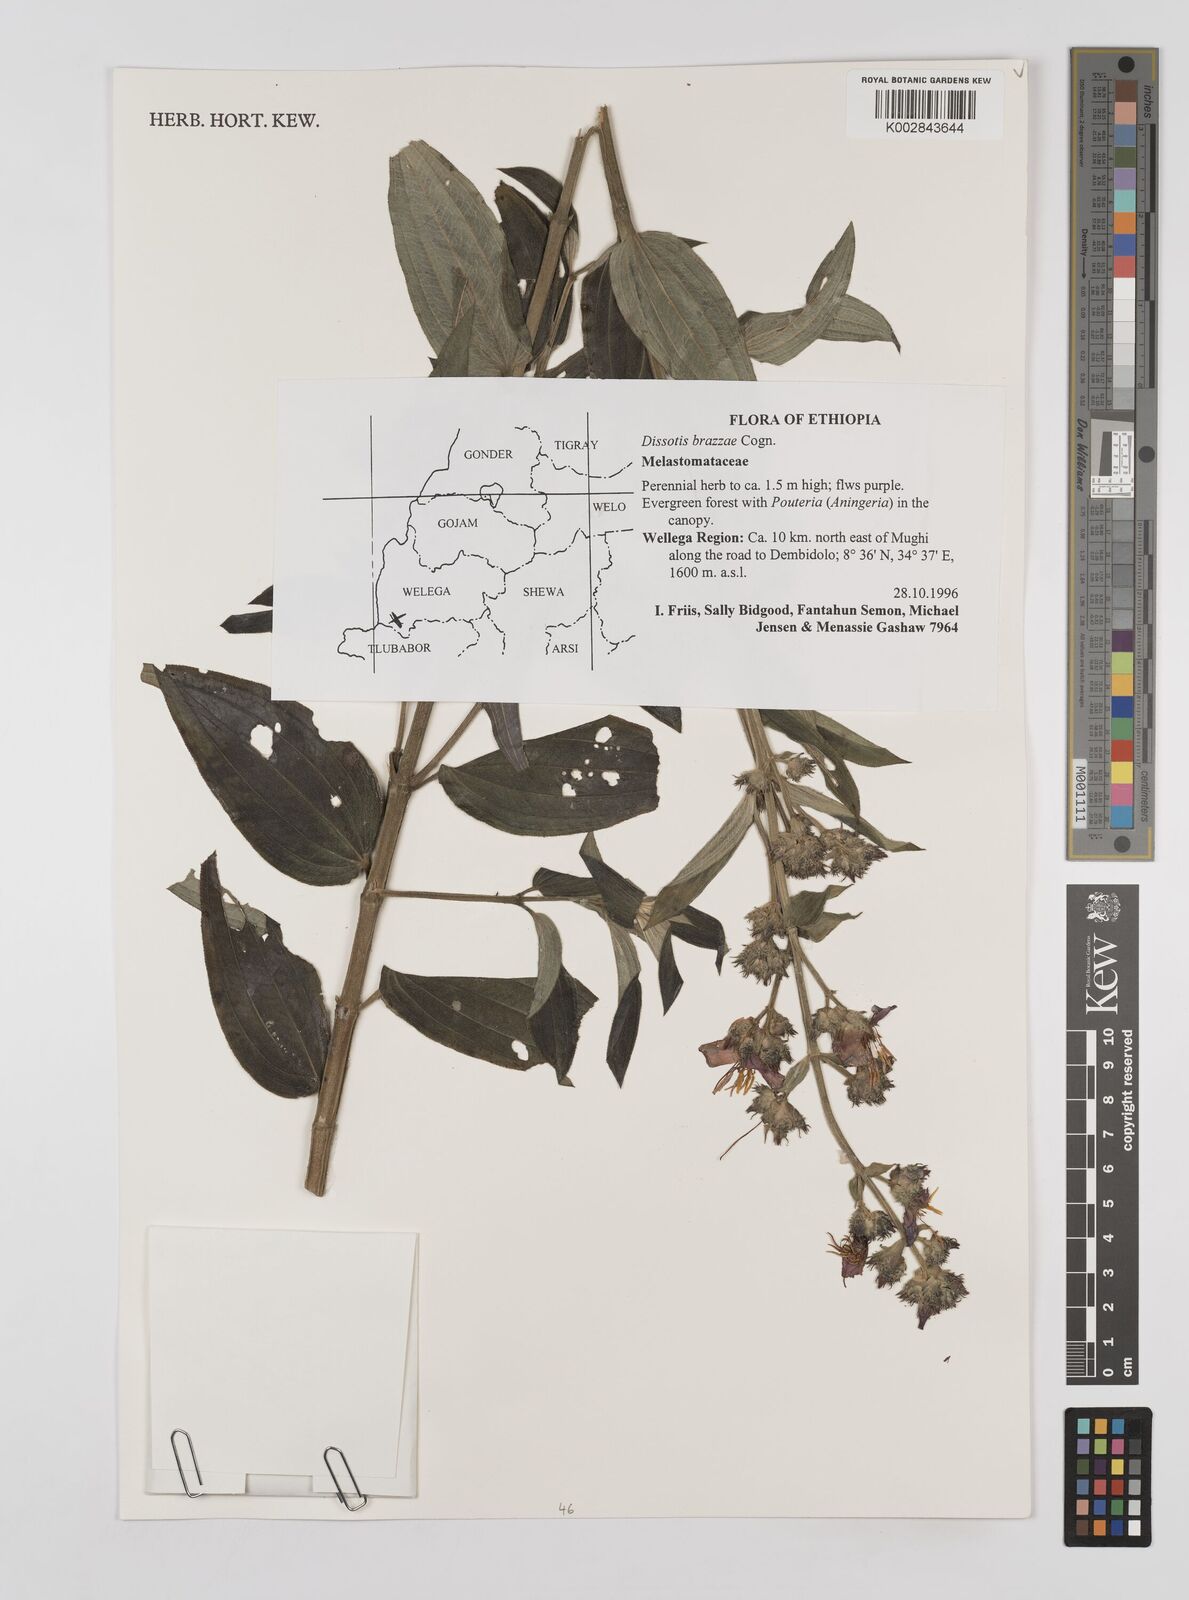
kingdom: Plantae
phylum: Tracheophyta
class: Magnoliopsida
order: Myrtales
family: Melastomataceae
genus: Dupineta
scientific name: Dupineta brazzae
